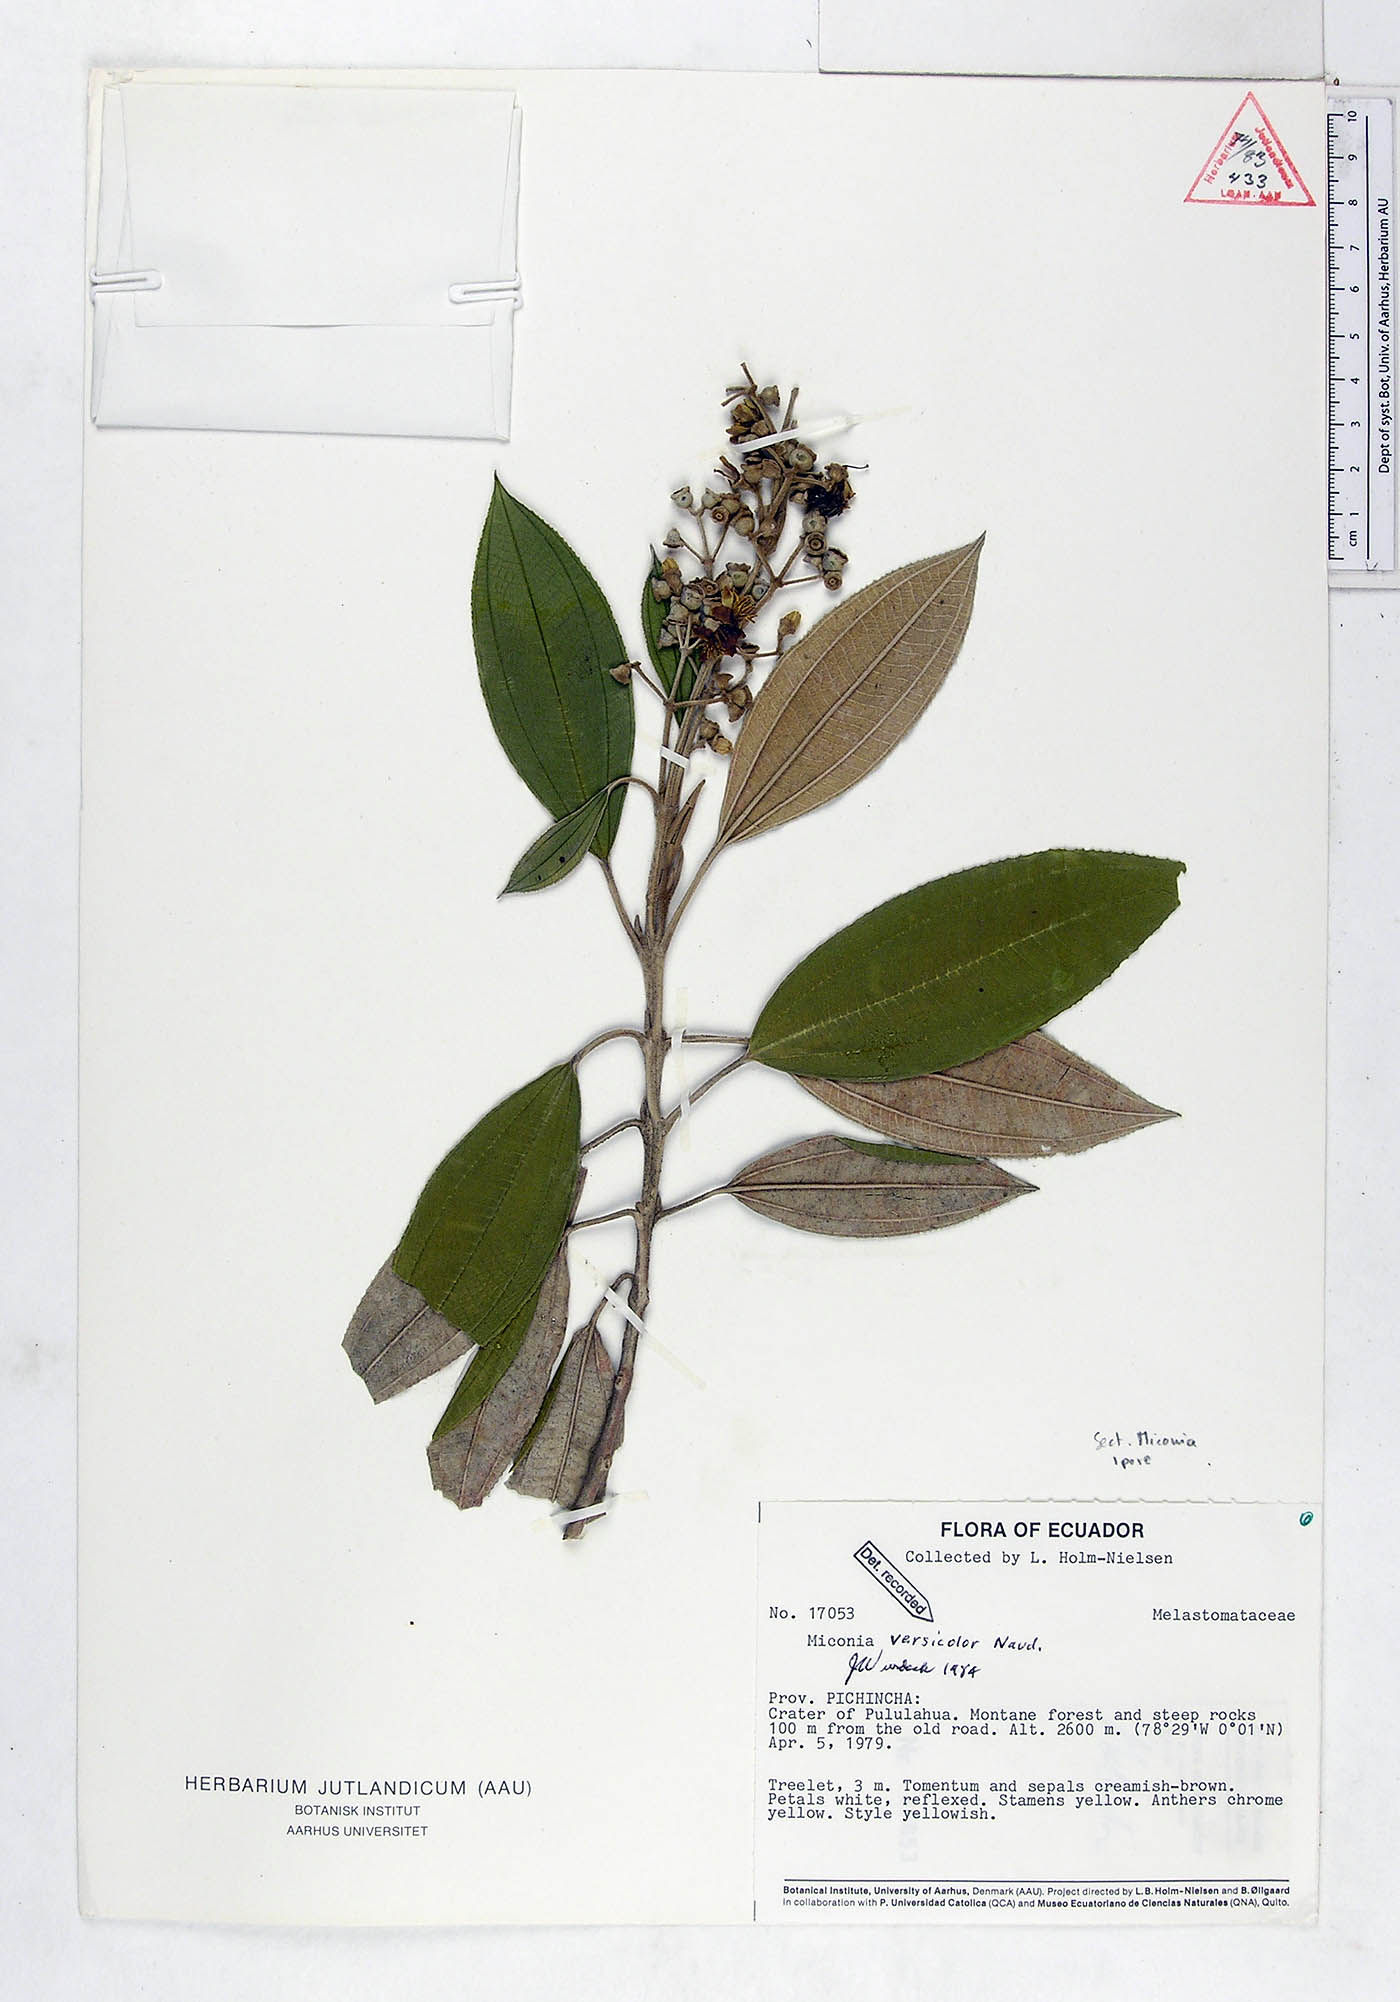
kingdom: Plantae
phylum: Tracheophyta
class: Magnoliopsida
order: Myrtales
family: Melastomataceae
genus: Miconia
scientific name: Miconia versicolor
